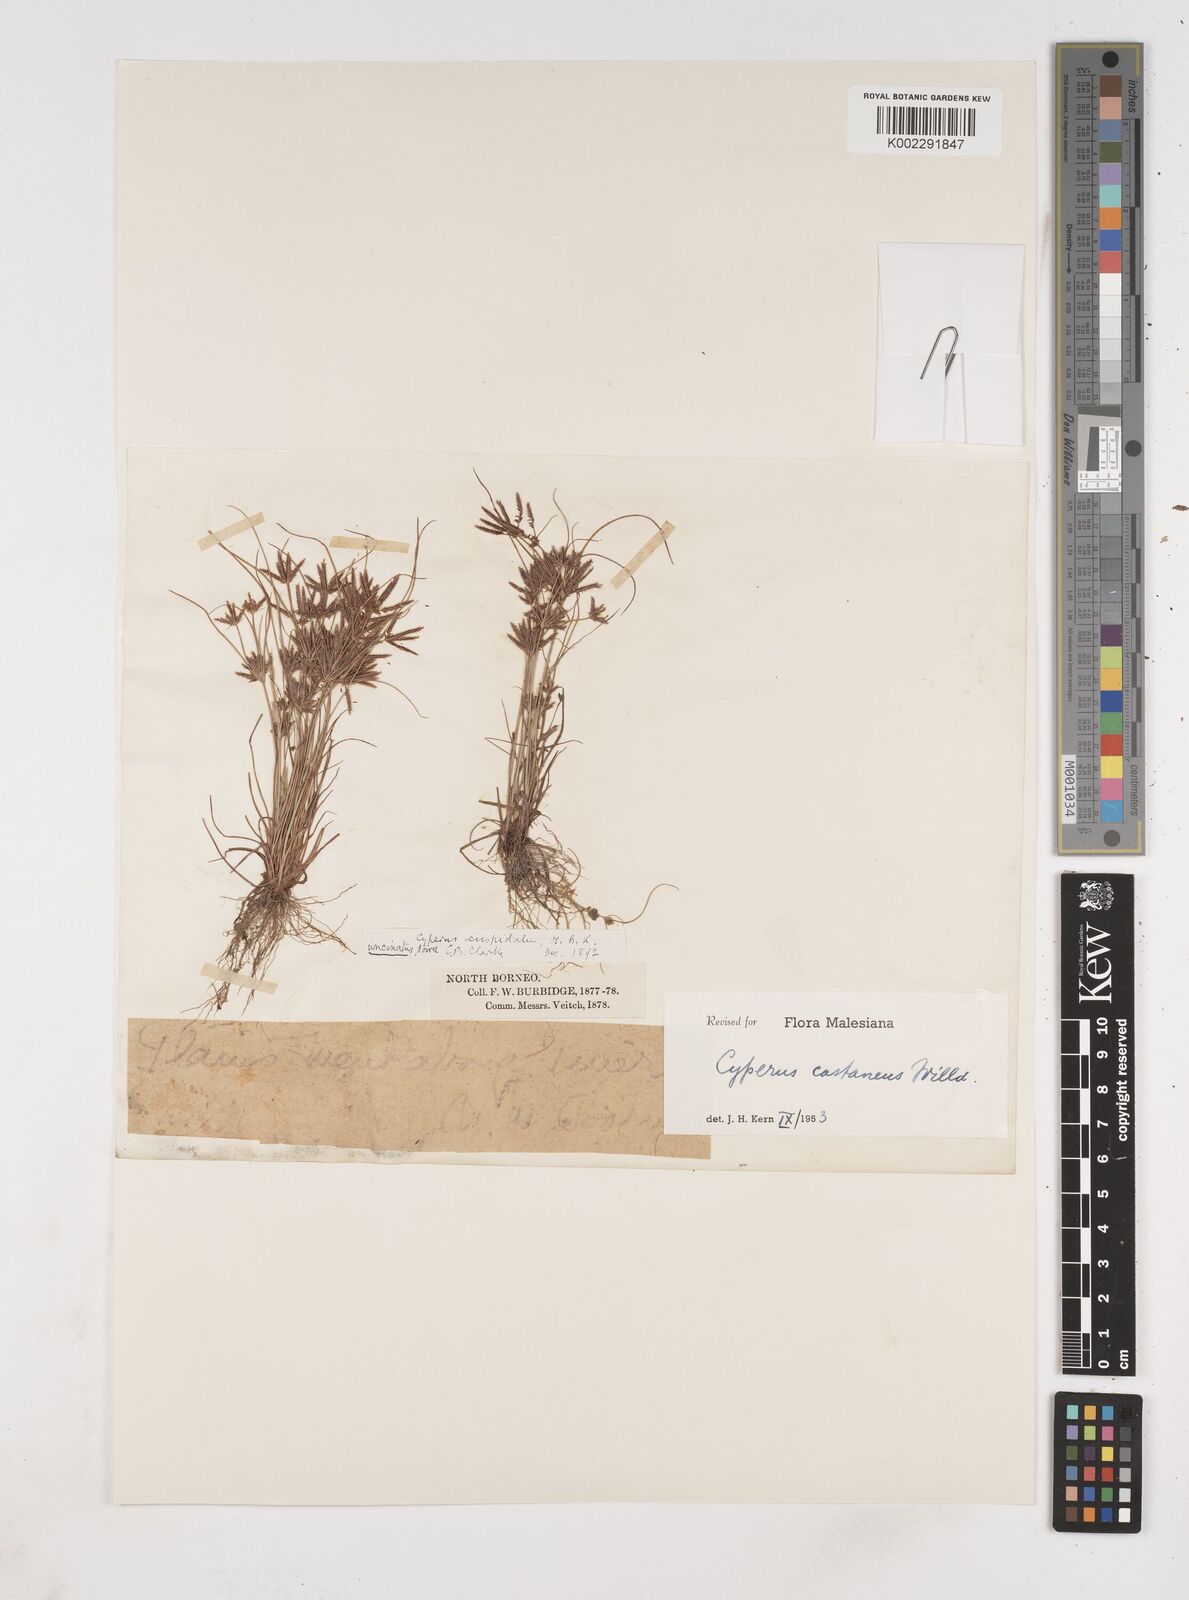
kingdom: Plantae
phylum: Tracheophyta
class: Liliopsida
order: Poales
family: Cyperaceae
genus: Cyperus
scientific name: Cyperus castaneus
